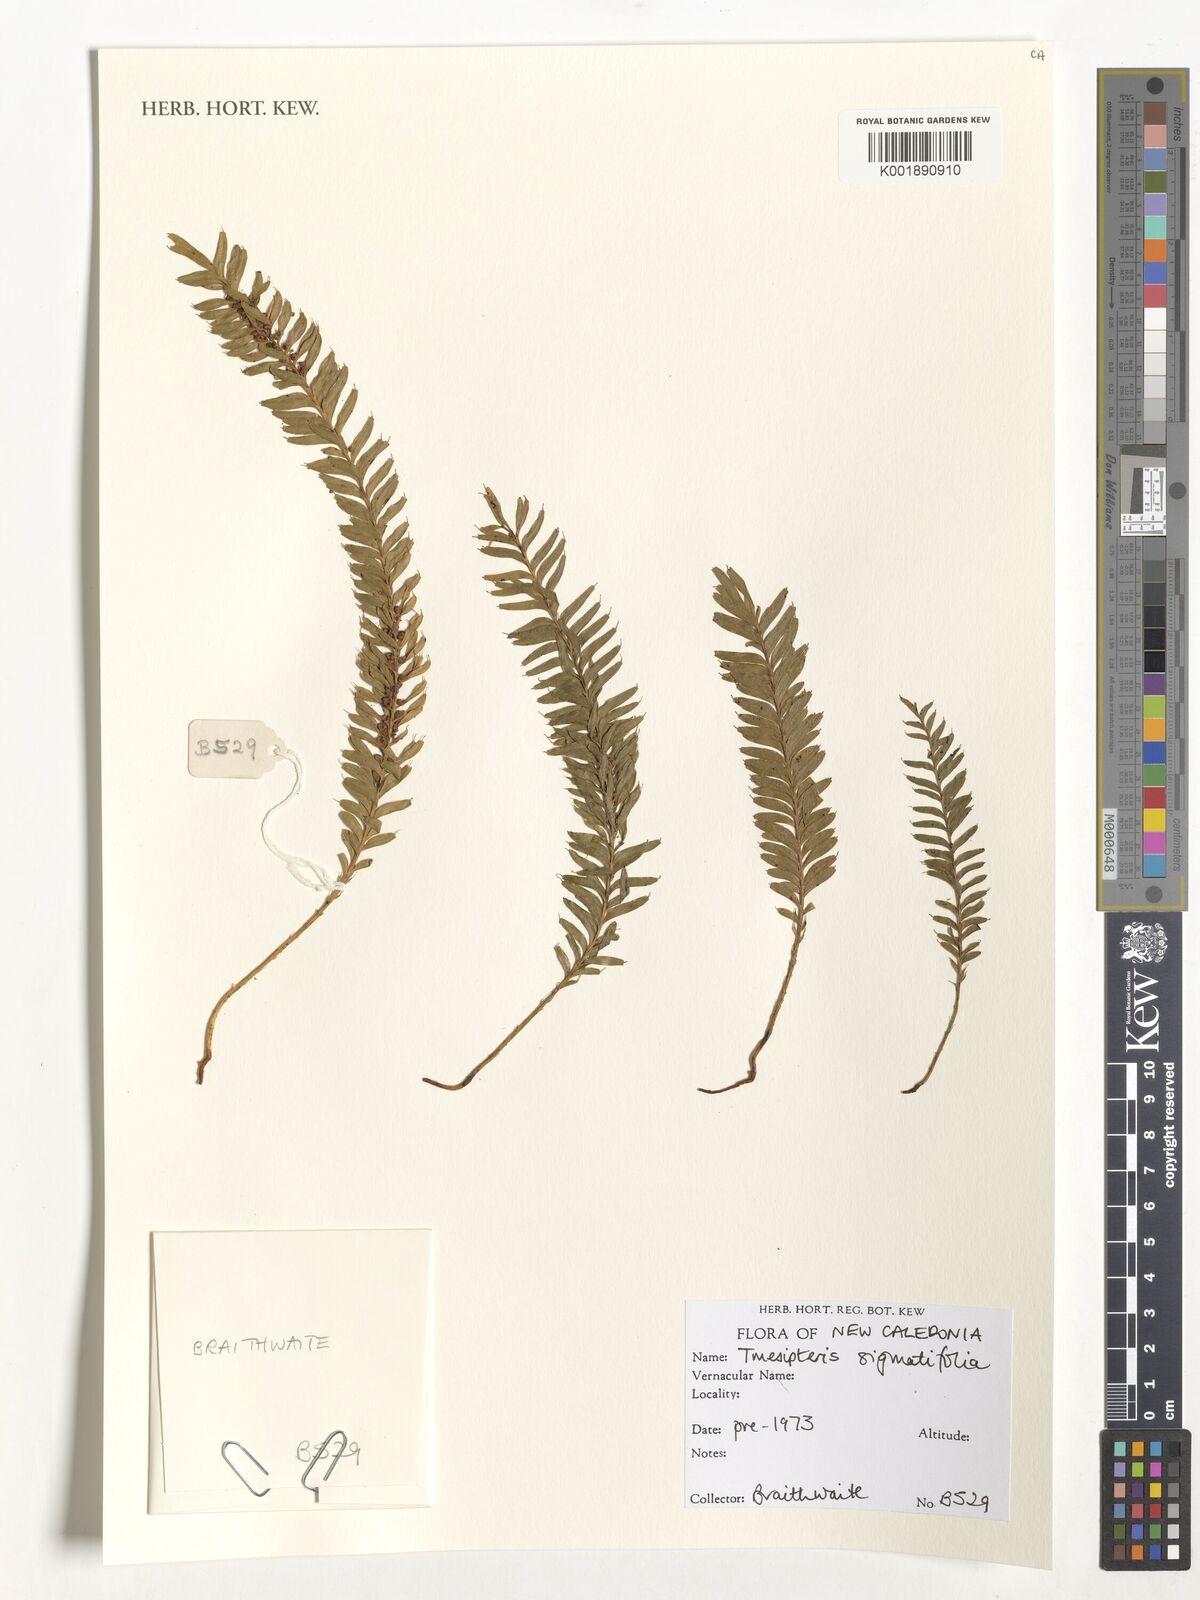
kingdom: Plantae
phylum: Tracheophyta
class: Polypodiopsida
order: Psilotales
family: Psilotaceae
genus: Tmesipteris
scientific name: Tmesipteris sigmatifolia
